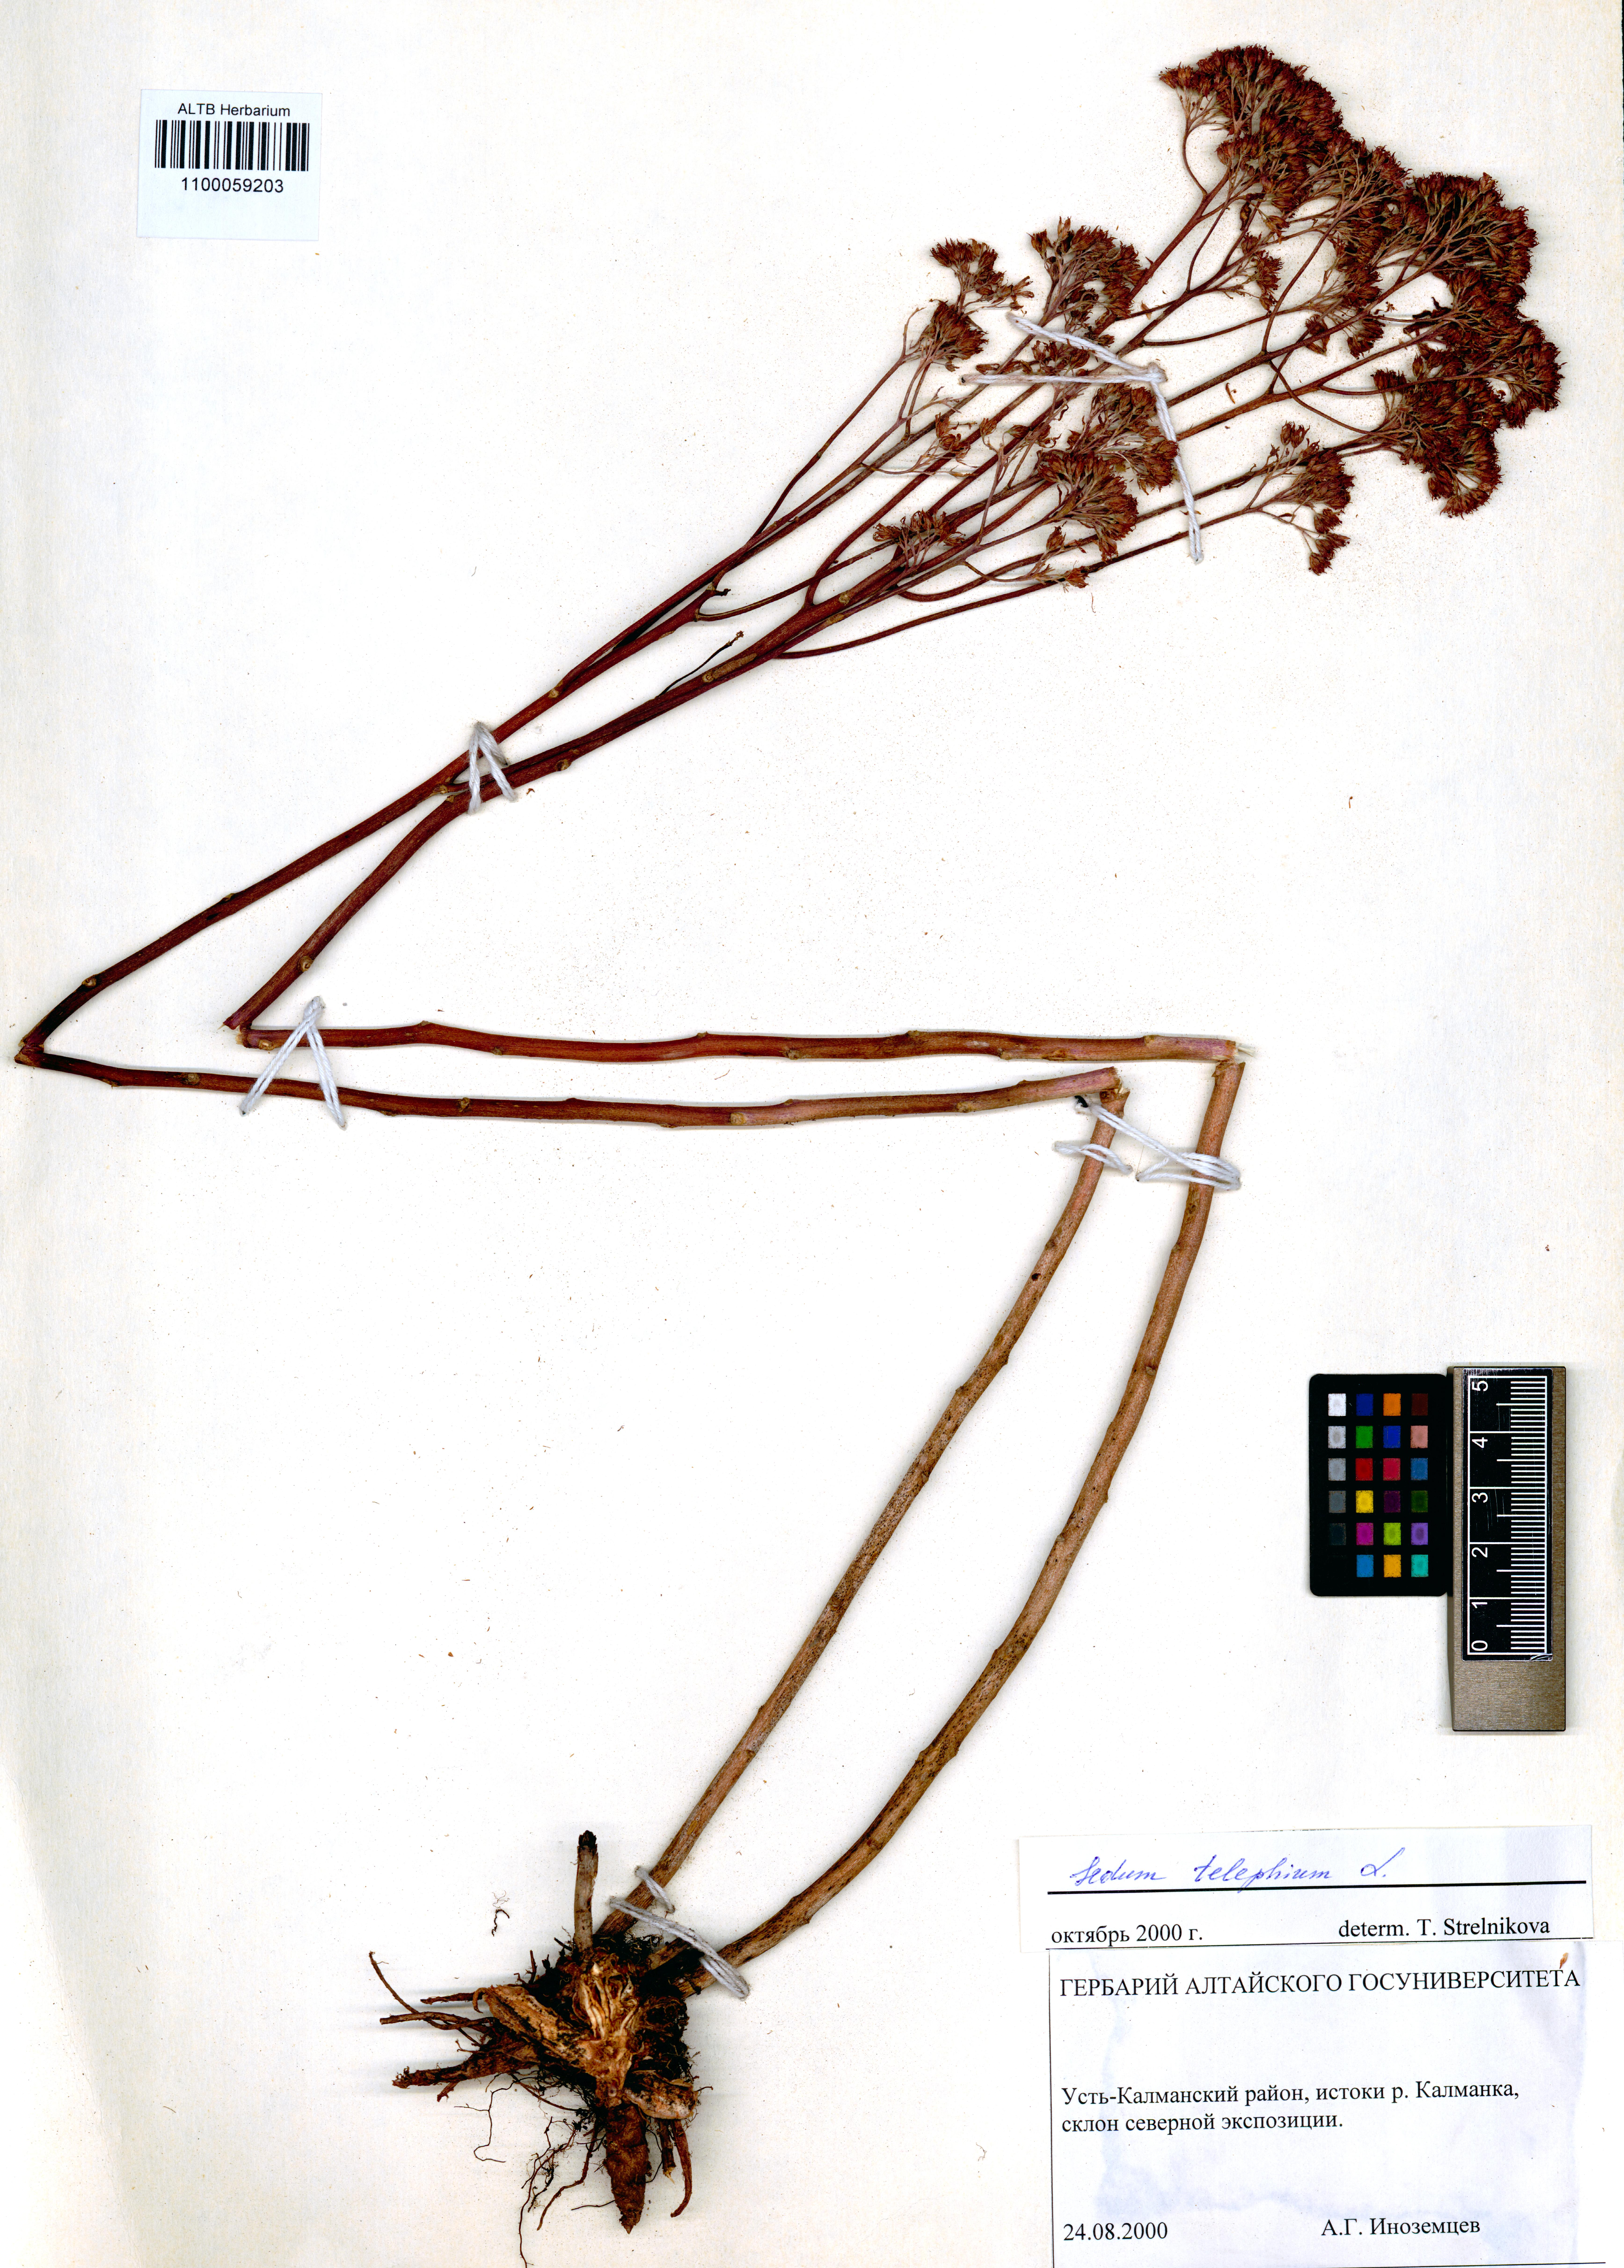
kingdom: Plantae
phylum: Tracheophyta
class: Magnoliopsida
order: Saxifragales
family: Crassulaceae
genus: Hylotelephium
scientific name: Hylotelephium telephium
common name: Live-forever
